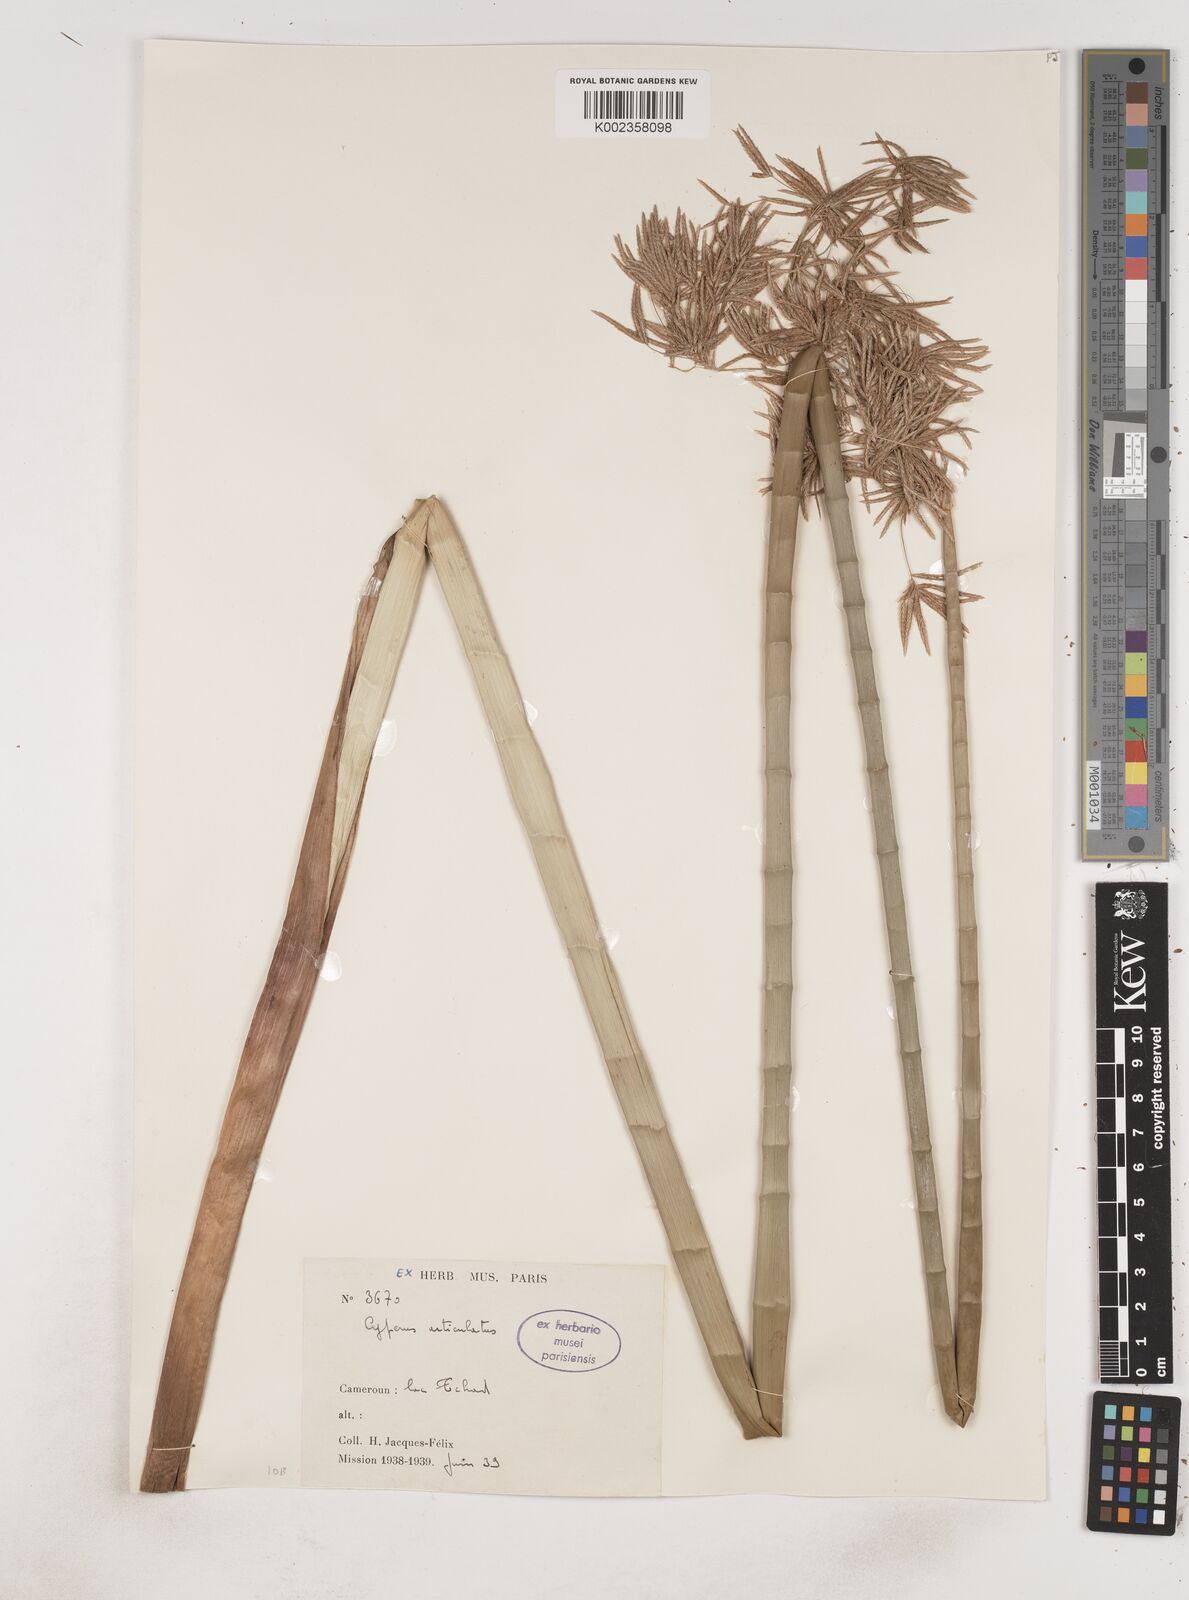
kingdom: Plantae
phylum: Tracheophyta
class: Liliopsida
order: Poales
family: Cyperaceae
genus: Cyperus
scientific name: Cyperus articulatus
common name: Jointed flatsedge
